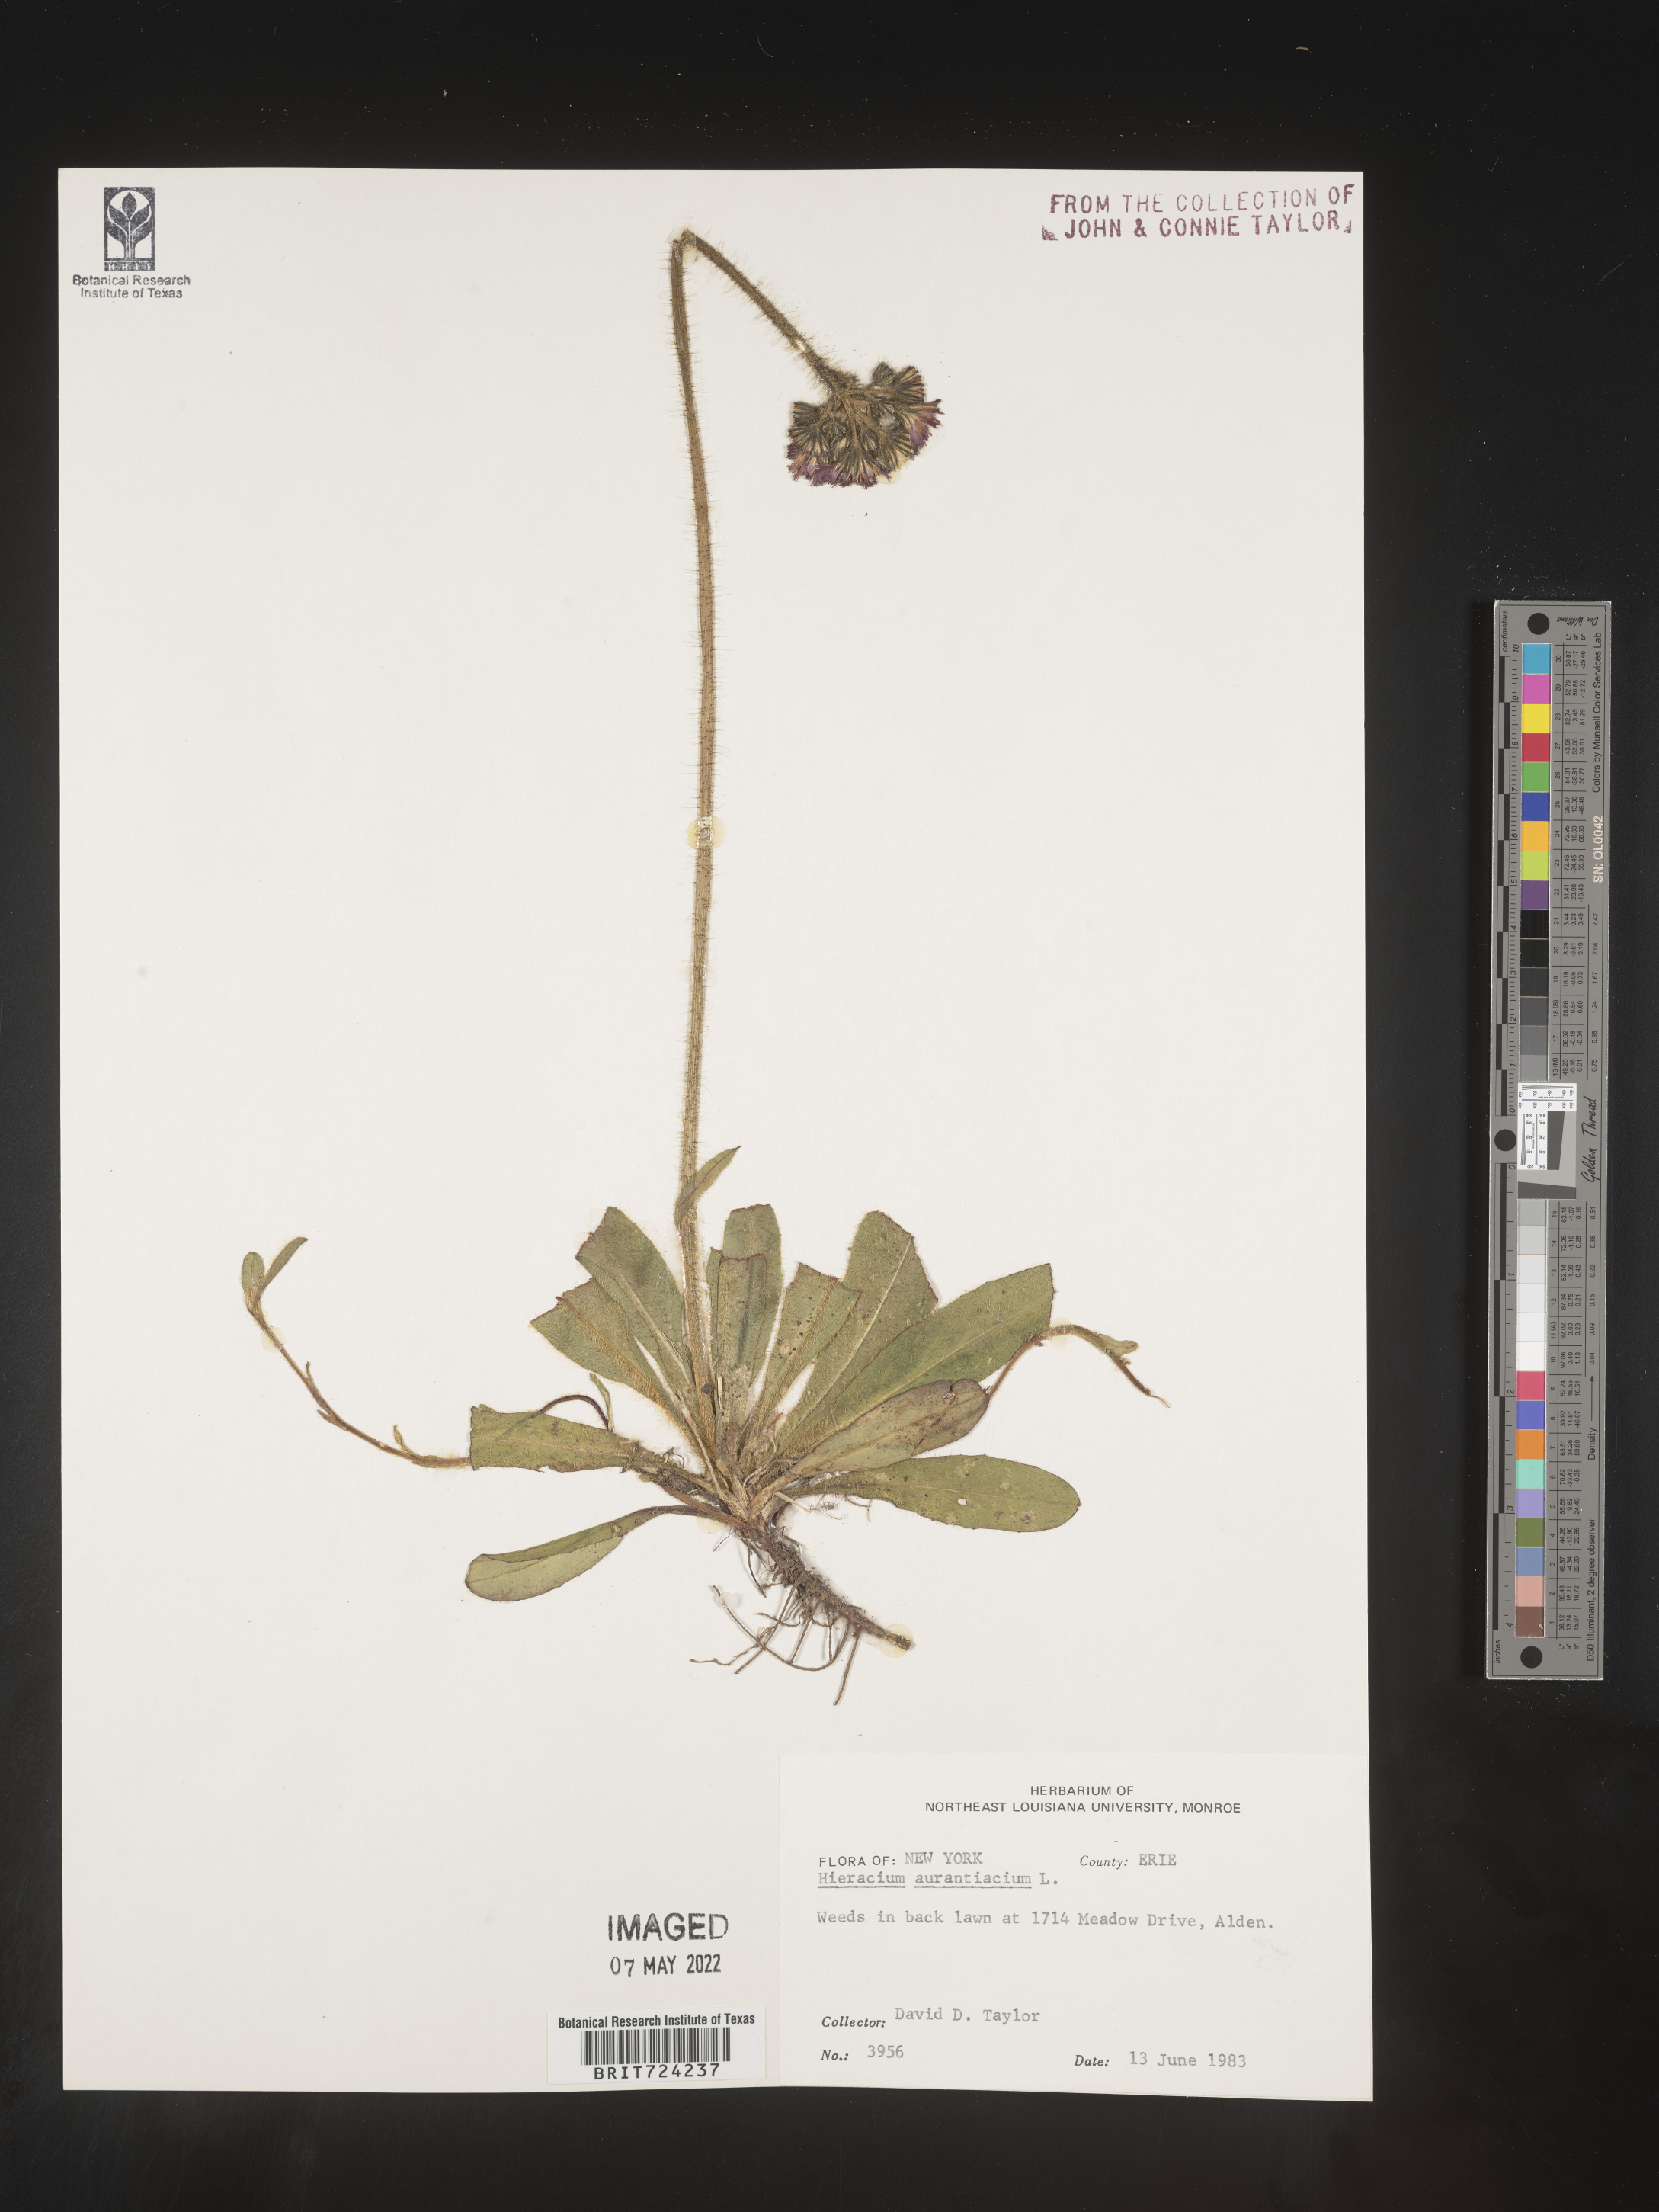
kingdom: Plantae
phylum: Tracheophyta
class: Magnoliopsida
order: Asterales
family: Asteraceae
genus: Pilosella
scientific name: Pilosella aurantiaca
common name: Fox-and-cubs
